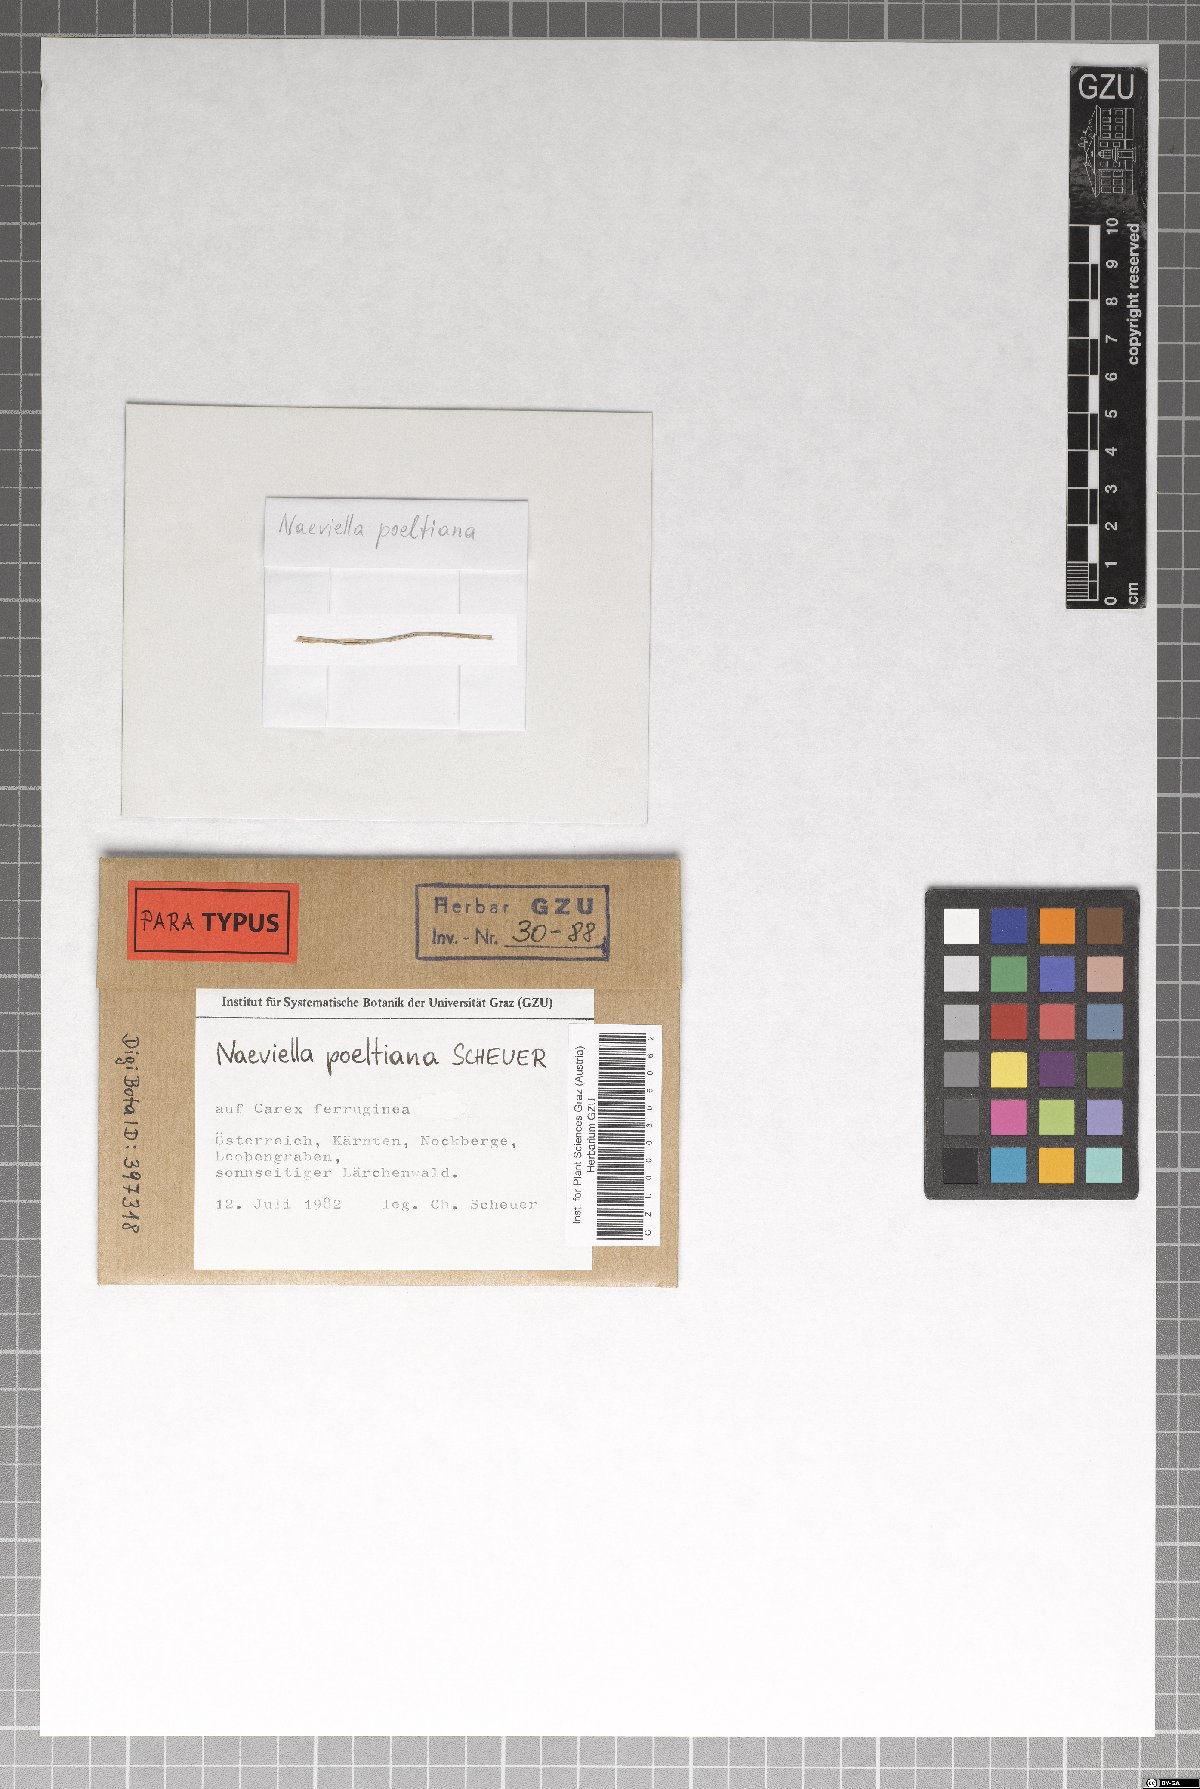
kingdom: Fungi
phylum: Ascomycota
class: Leotiomycetes
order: Helotiales
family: Calloriaceae
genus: Naeviella
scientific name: Naeviella poeltiana
